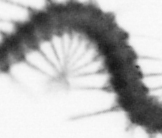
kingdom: Animalia
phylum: Annelida
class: Polychaeta
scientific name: Polychaeta
